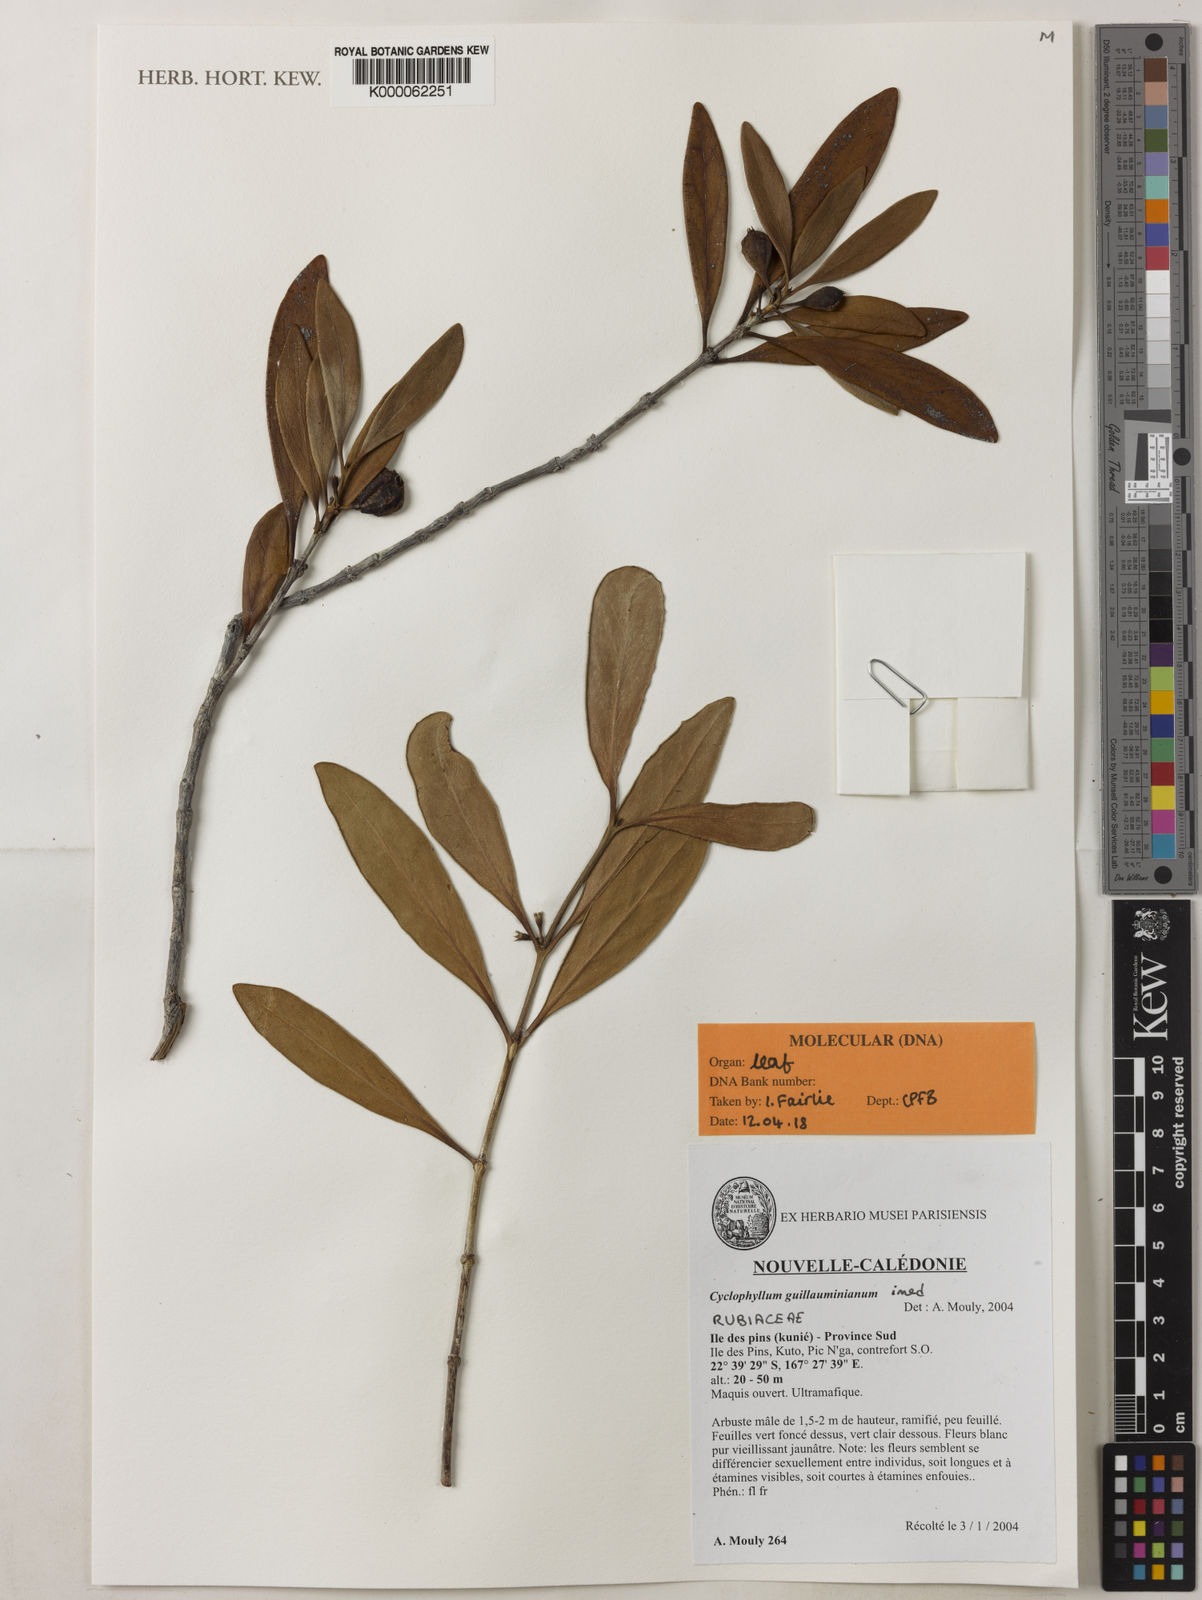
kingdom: Plantae
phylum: Tracheophyta
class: Magnoliopsida
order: Gentianales
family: Rubiaceae
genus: Cyclophyllum
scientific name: Cyclophyllum
